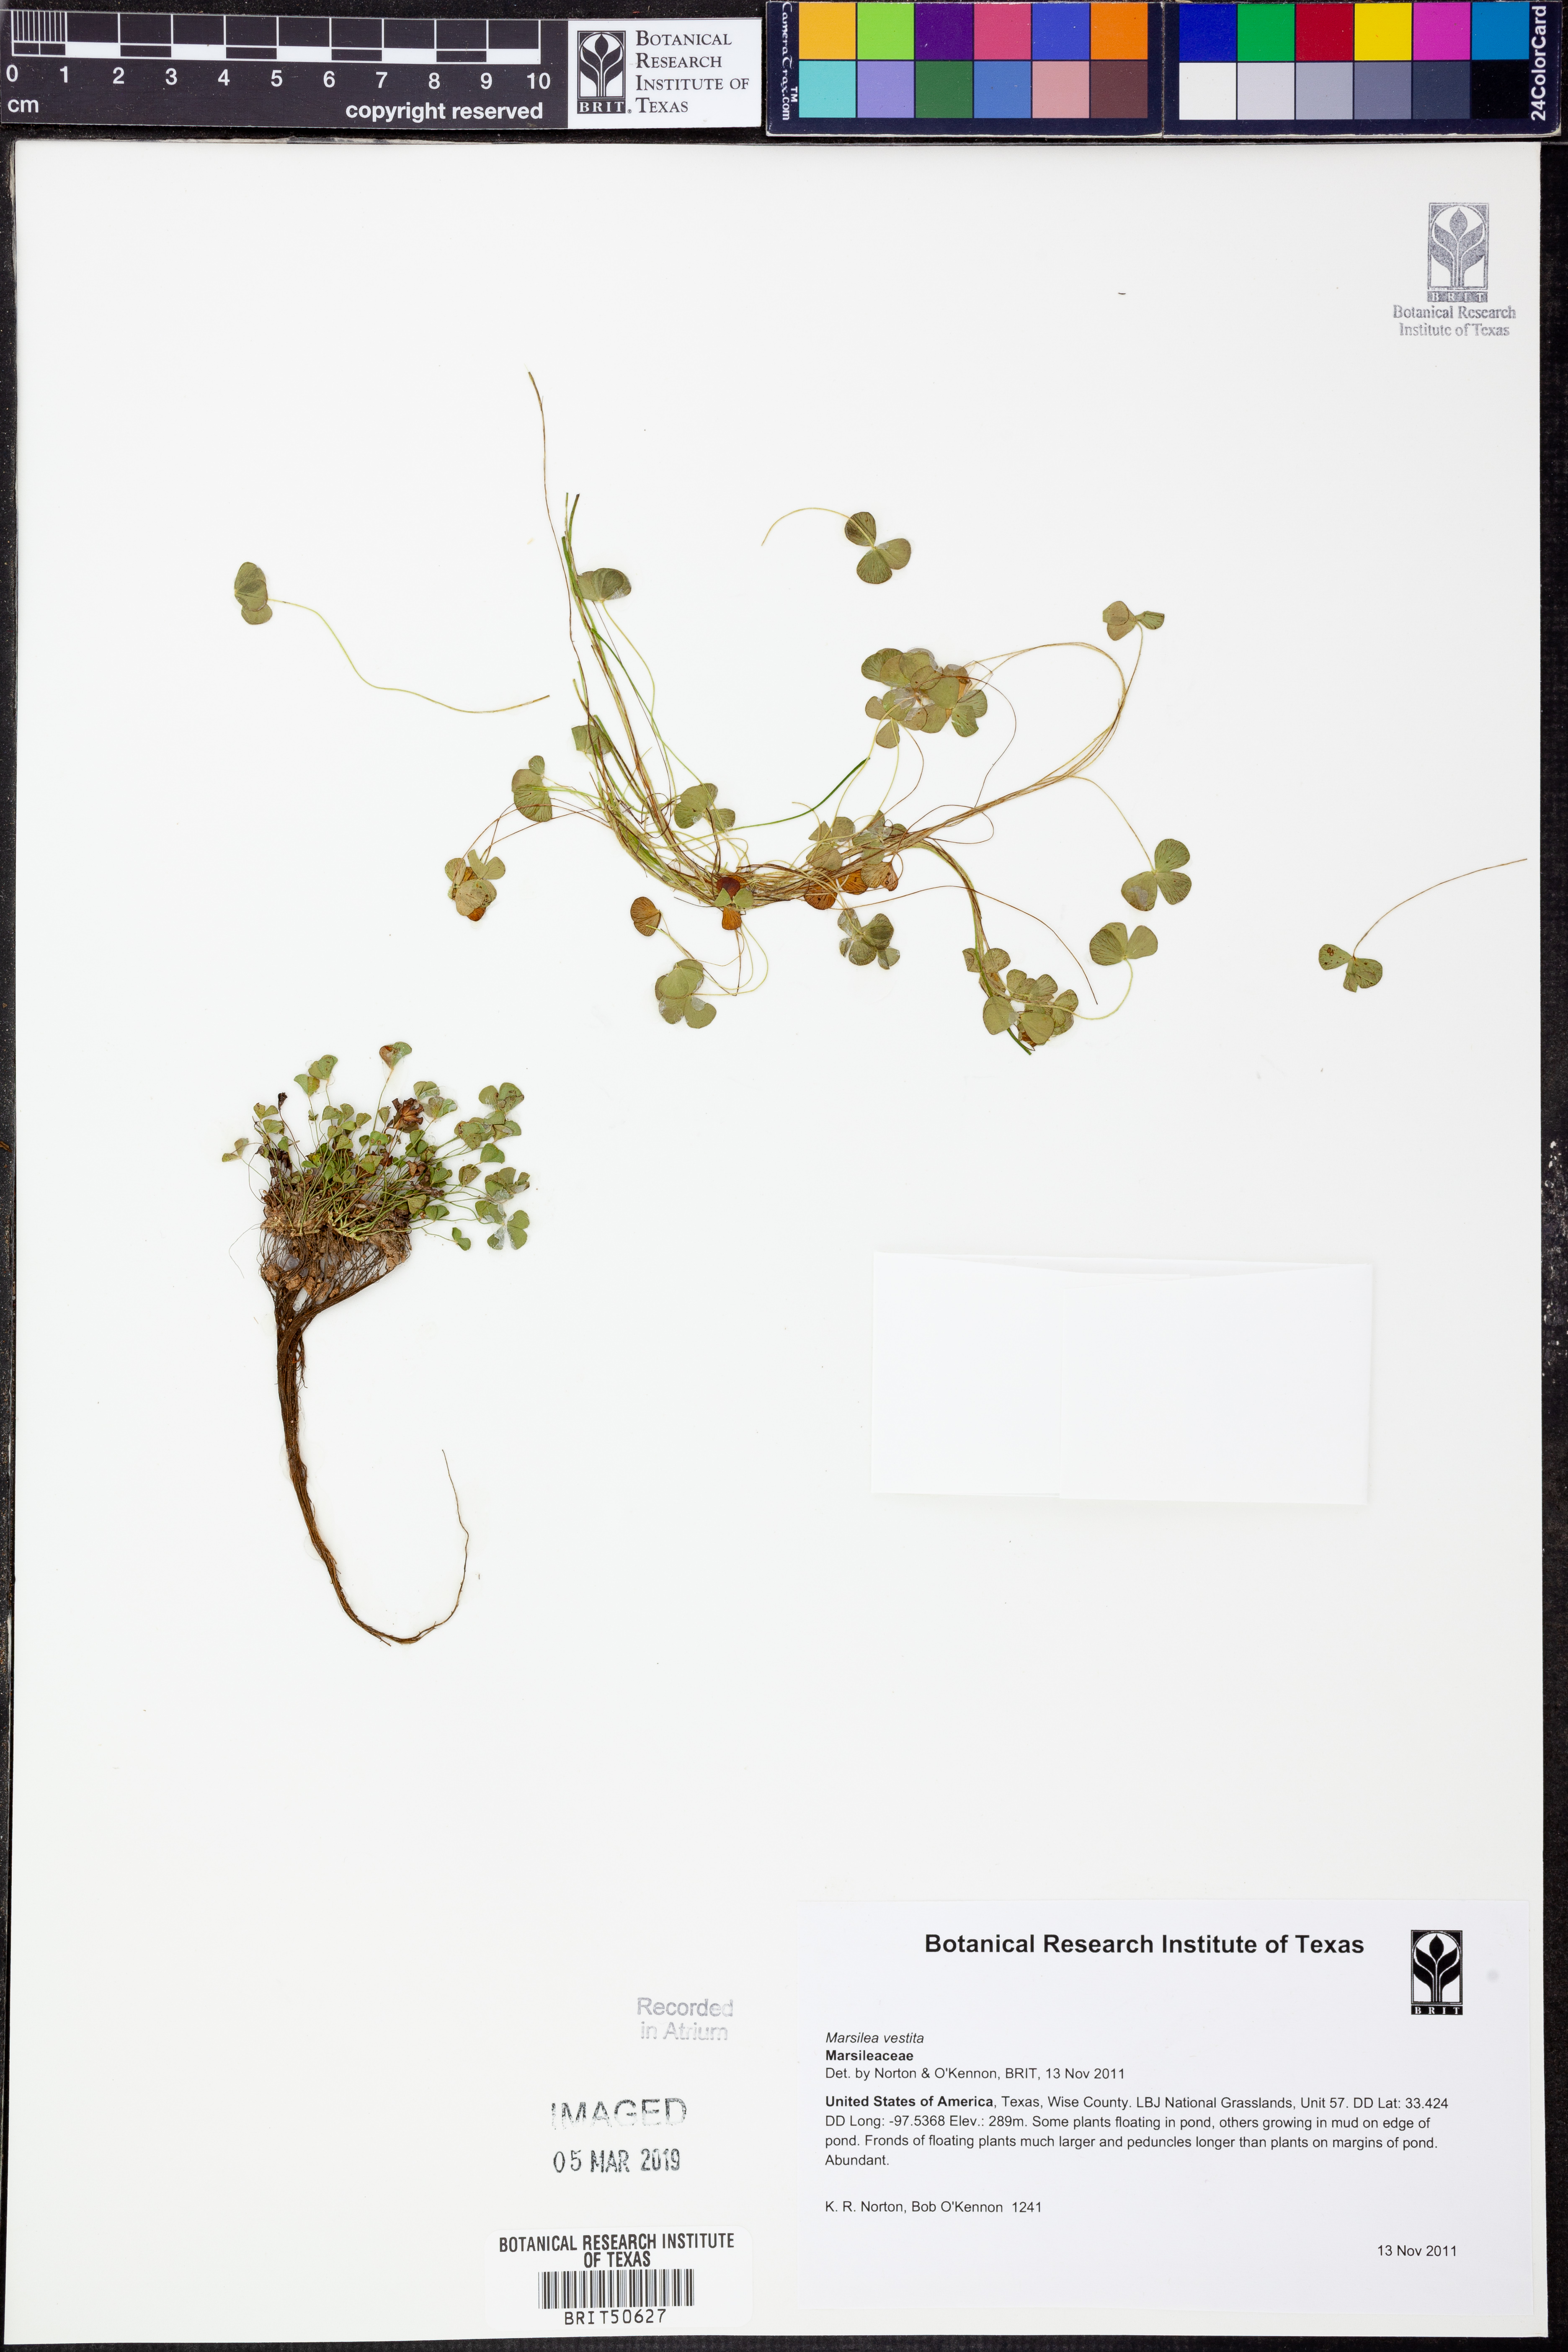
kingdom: Plantae
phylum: Tracheophyta
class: Polypodiopsida
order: Salviniales
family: Marsileaceae
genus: Marsilea
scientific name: Marsilea vestita
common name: Hooked-pepperwort
